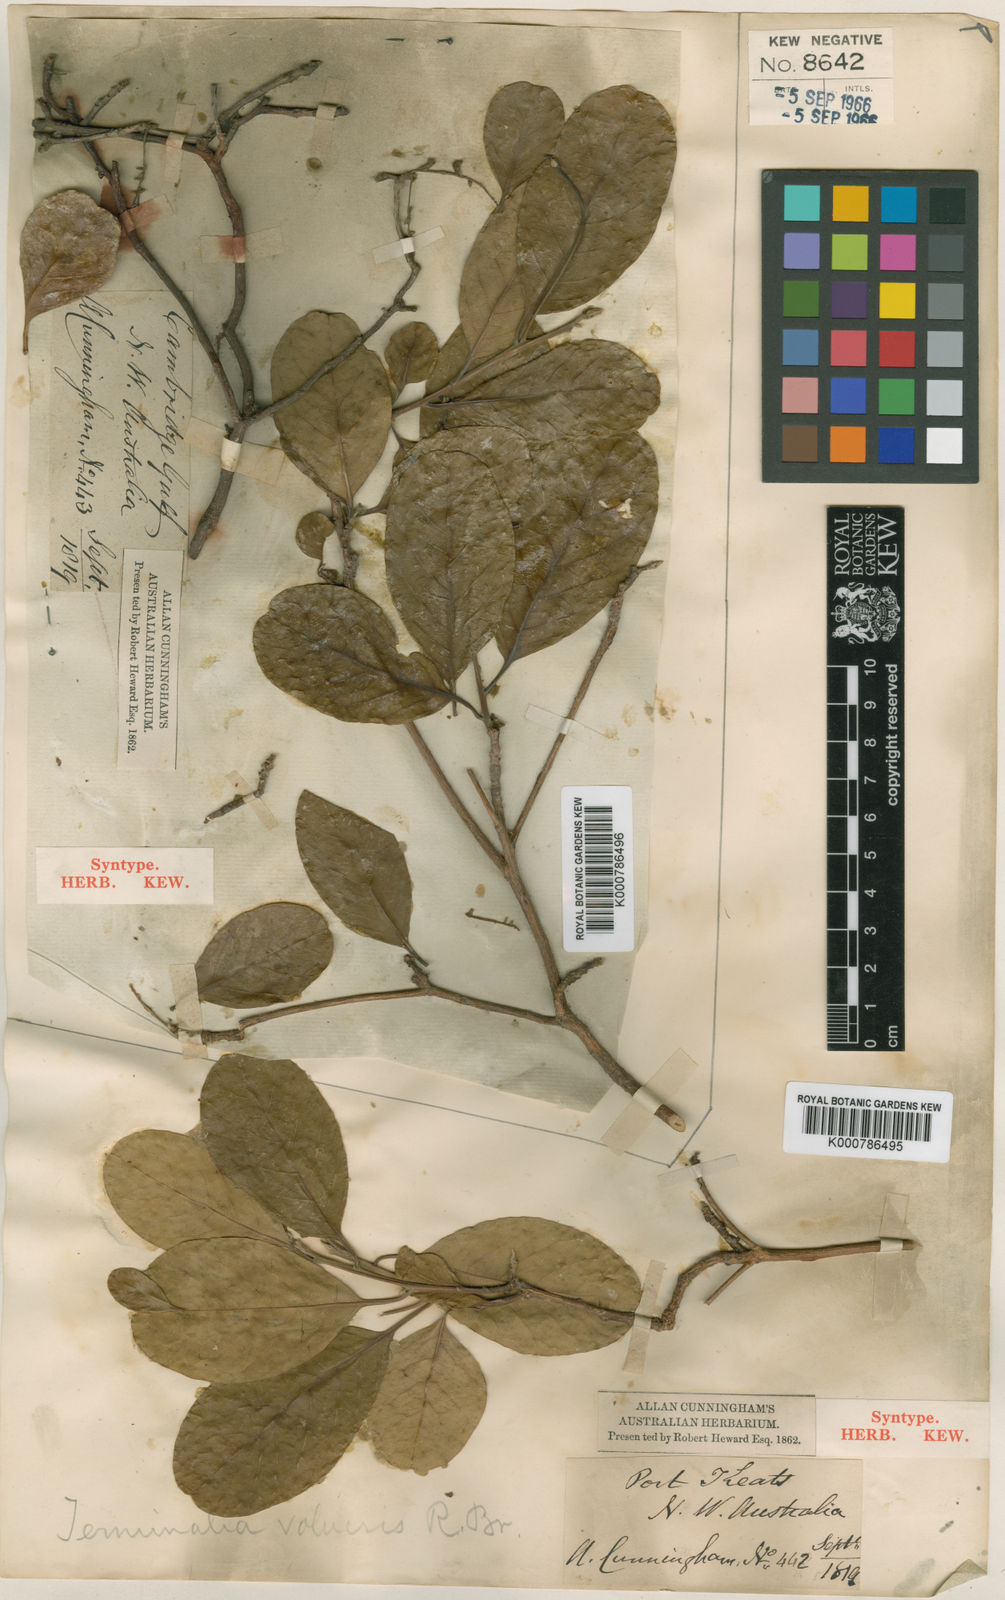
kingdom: Plantae
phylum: Tracheophyta
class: Magnoliopsida
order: Myrtales
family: Combretaceae
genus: Terminalia
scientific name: Terminalia volucris
